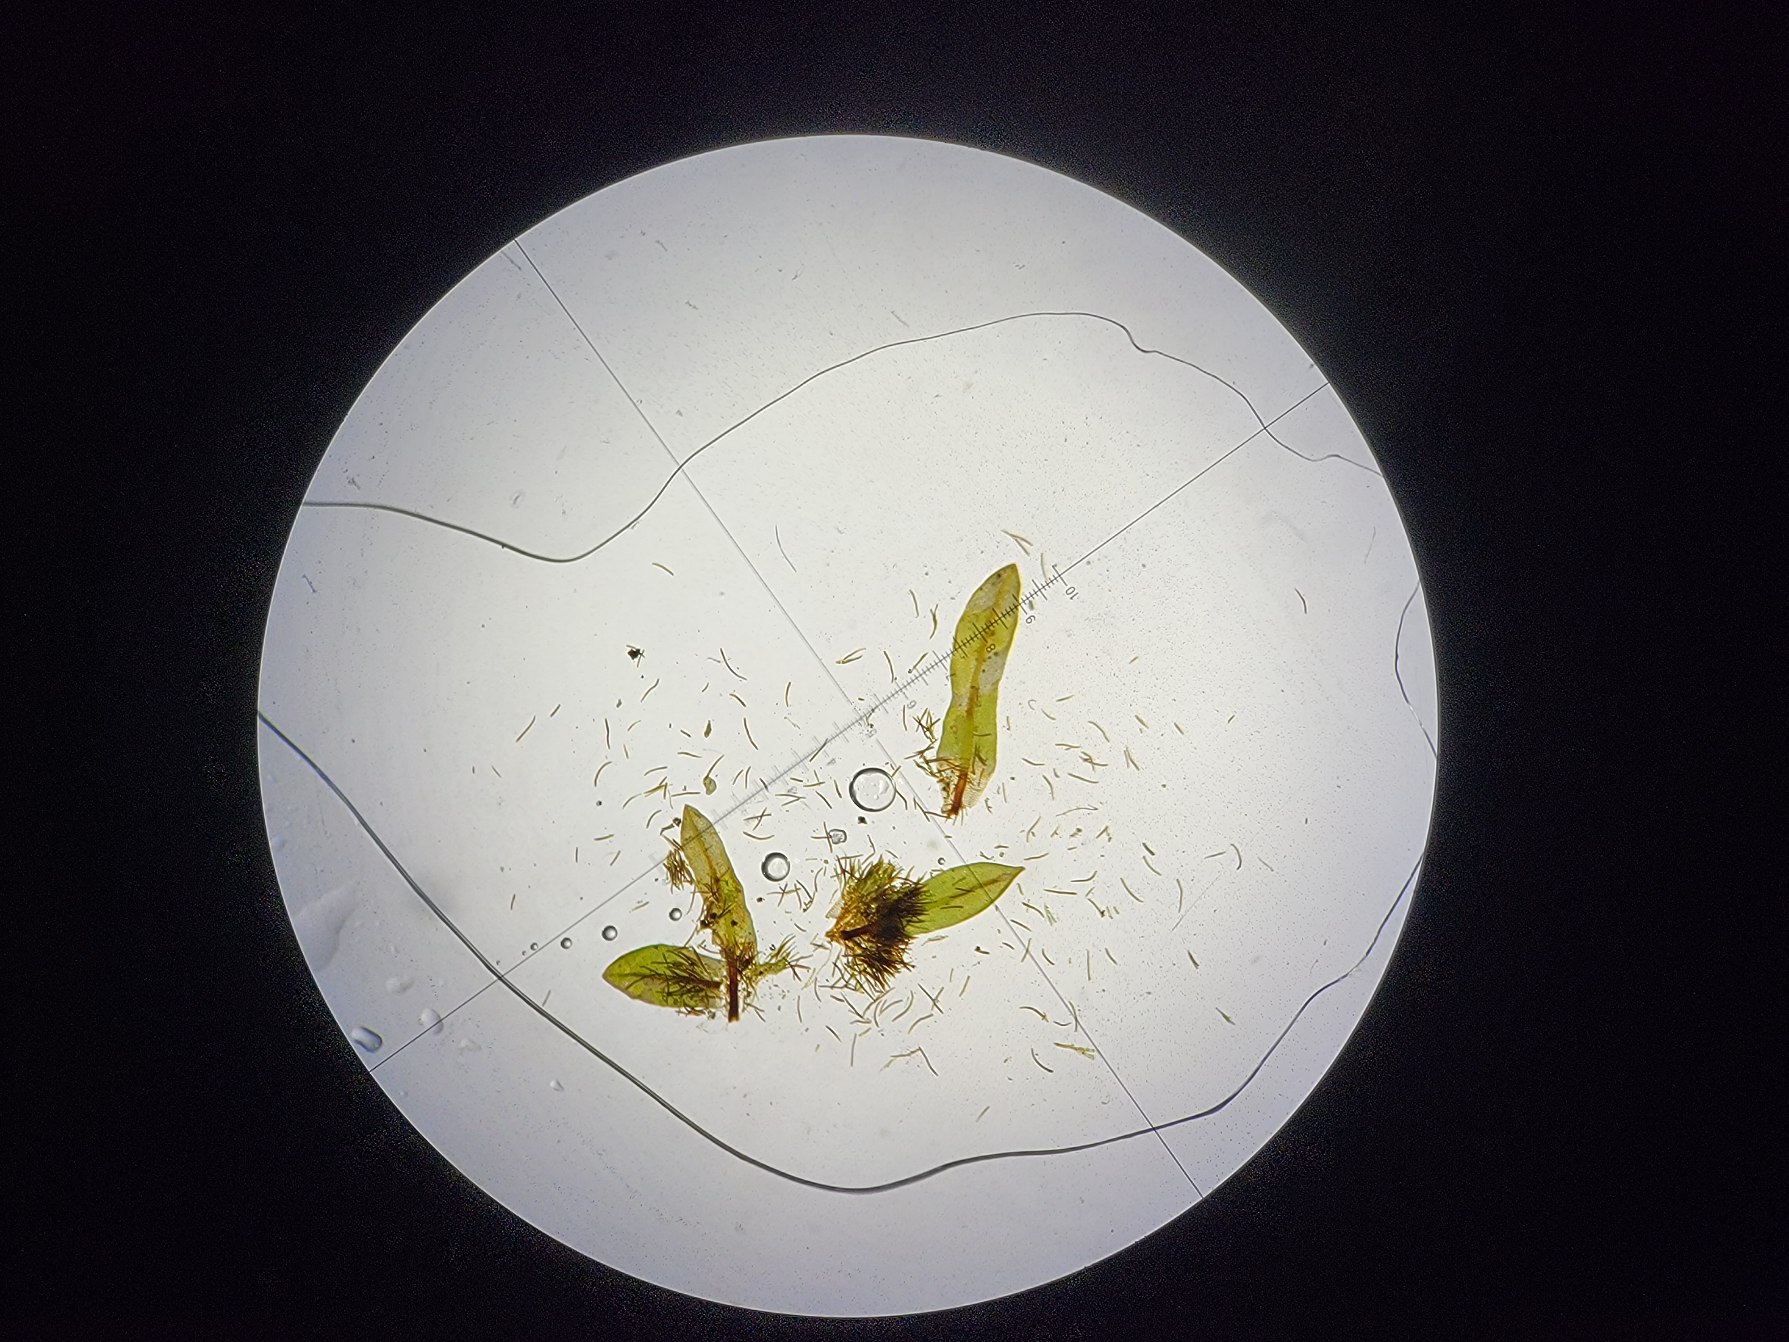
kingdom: Plantae
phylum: Bryophyta
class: Bryopsida
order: Encalyptales
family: Encalyptaceae
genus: Encalypta
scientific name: Encalypta streptocarpa
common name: Stor klokkehætte
